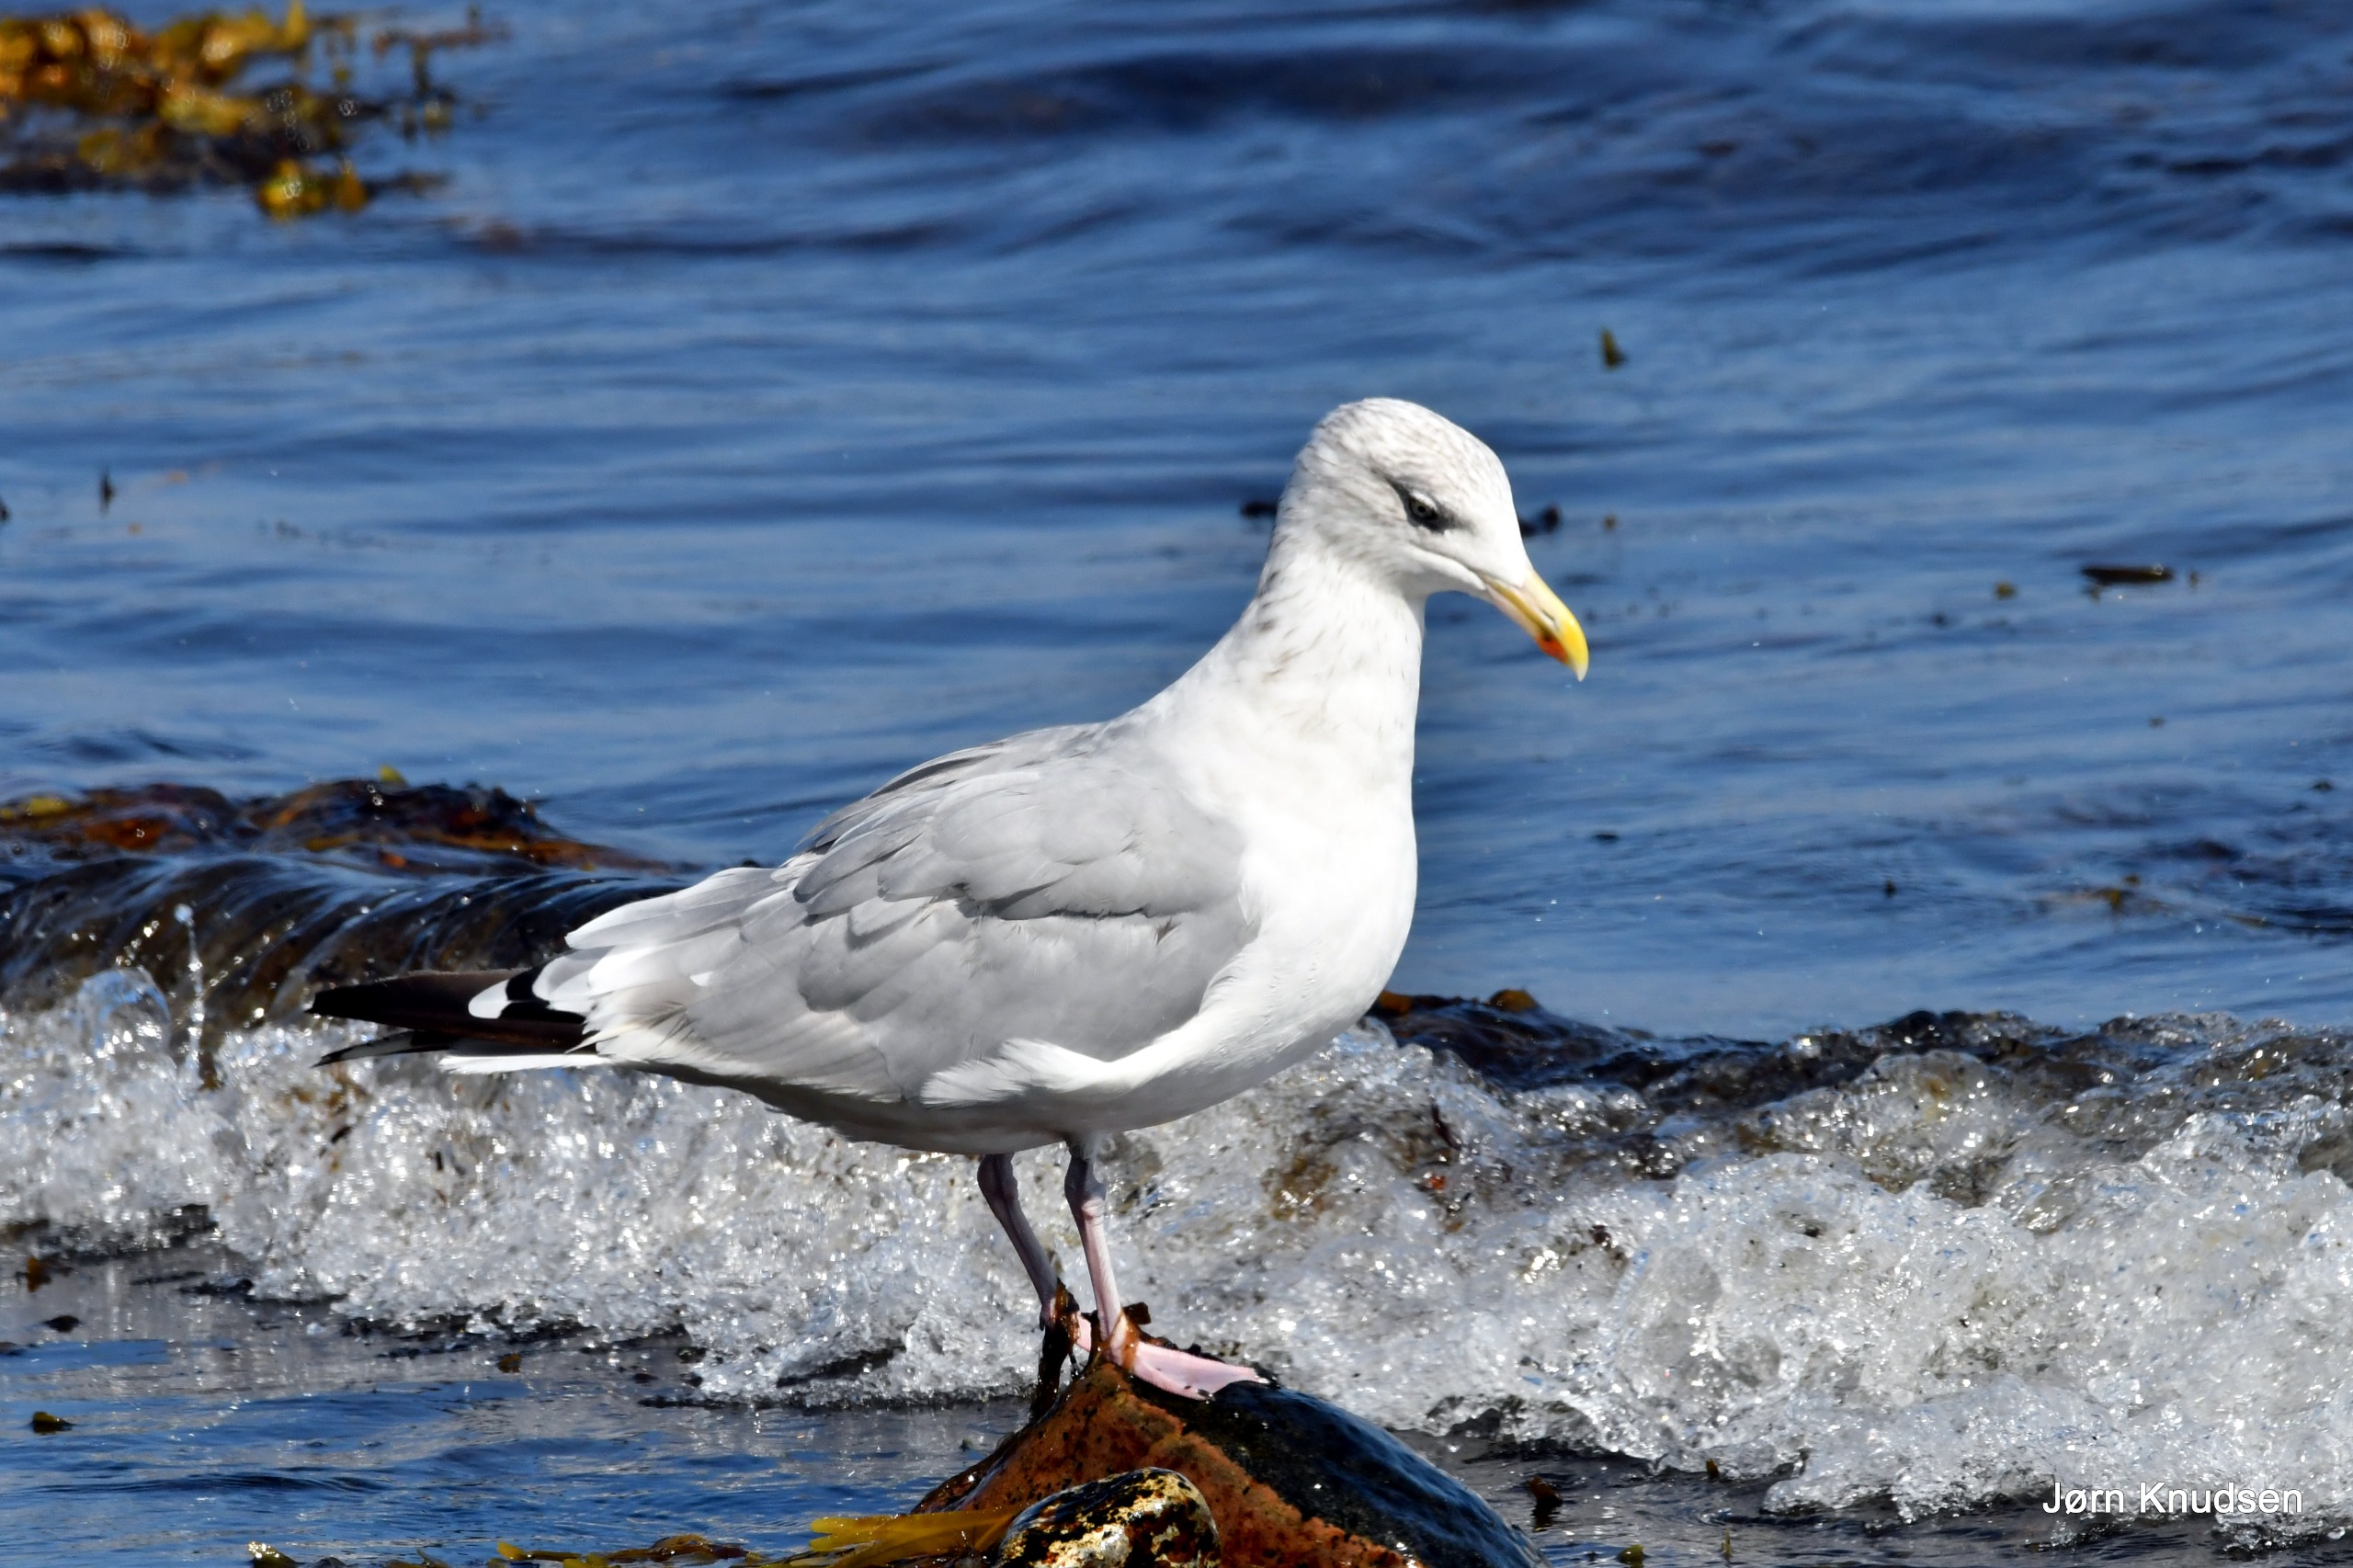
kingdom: Animalia
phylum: Chordata
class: Aves
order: Charadriiformes
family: Laridae
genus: Larus
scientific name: Larus argentatus
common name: Sølvmåge
